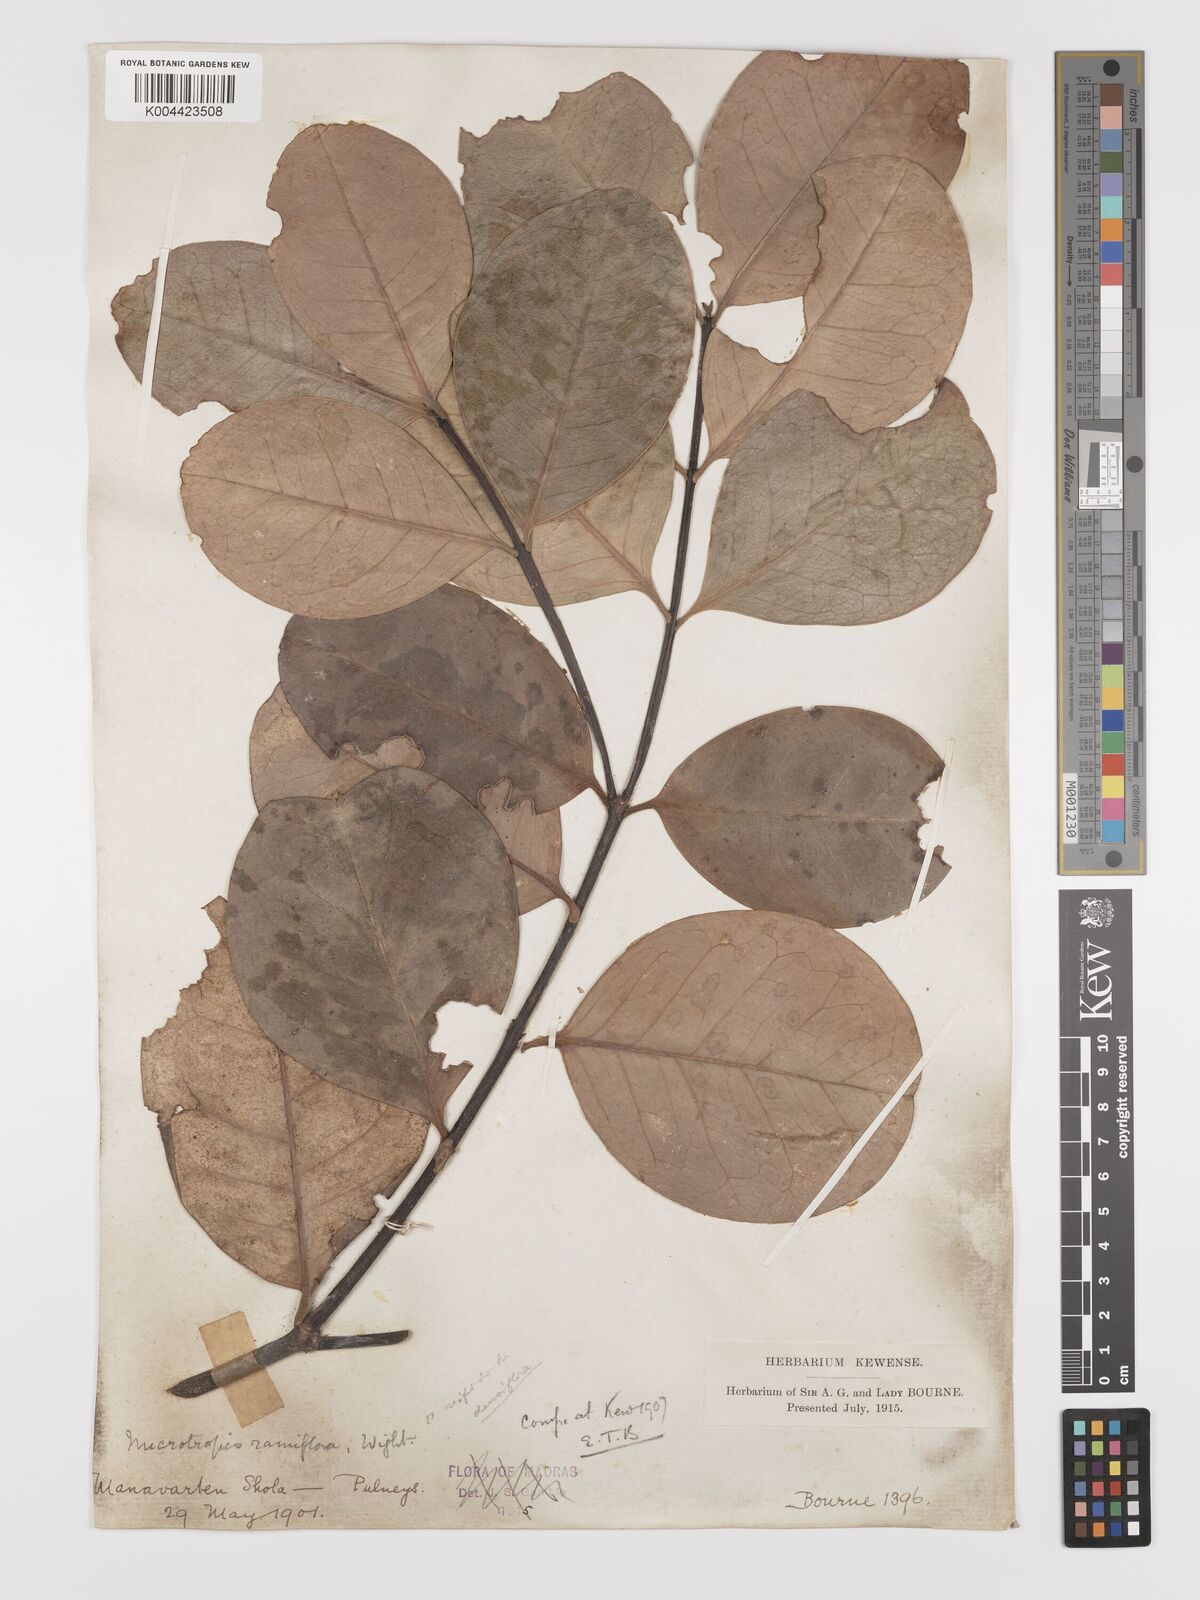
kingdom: Plantae
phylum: Tracheophyta
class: Magnoliopsida
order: Celastrales
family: Celastraceae
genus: Microtropis
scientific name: Microtropis ramiflora
